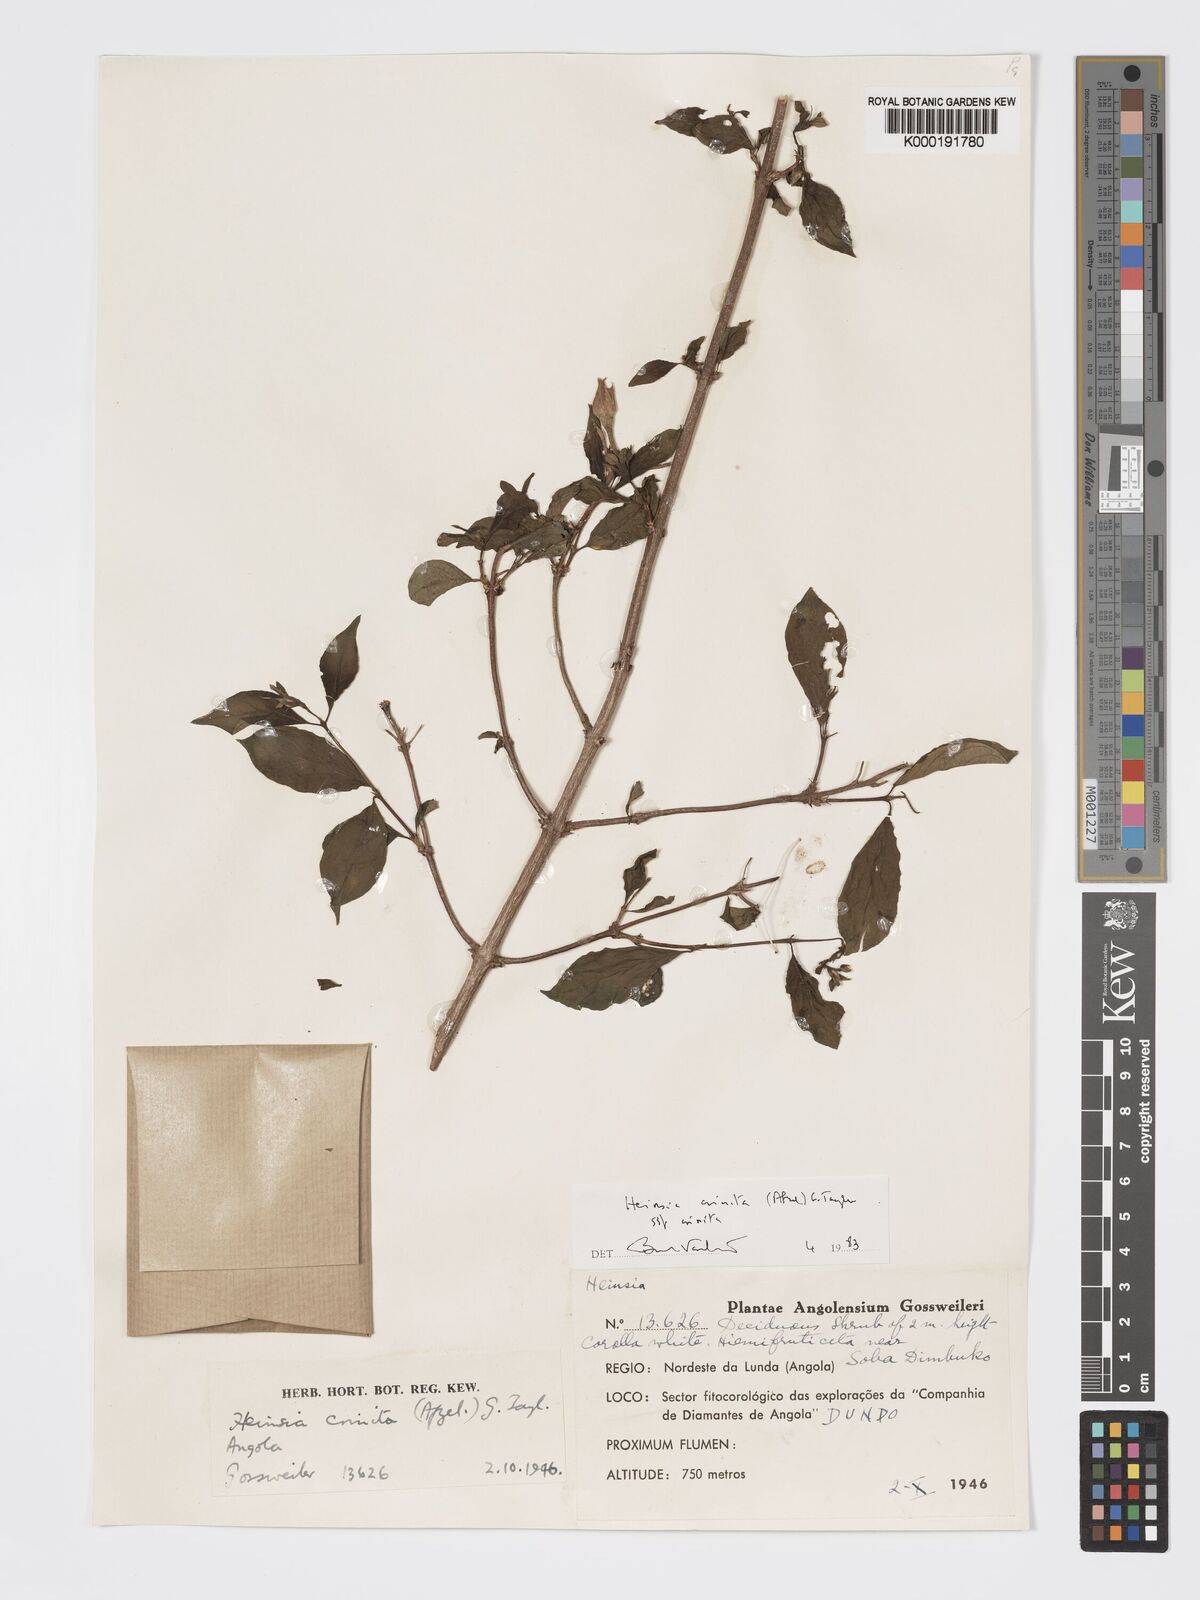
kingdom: Plantae
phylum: Tracheophyta
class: Magnoliopsida
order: Gentianales
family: Rubiaceae
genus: Heinsia
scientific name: Heinsia crinita
